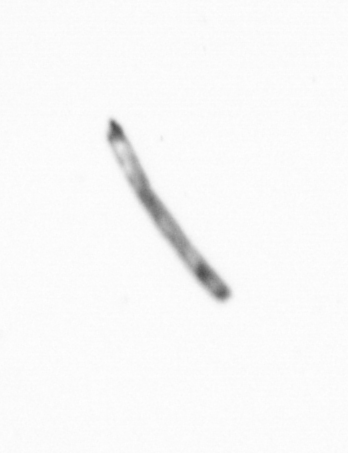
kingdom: Chromista
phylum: Ochrophyta
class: Bacillariophyceae
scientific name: Bacillariophyceae
